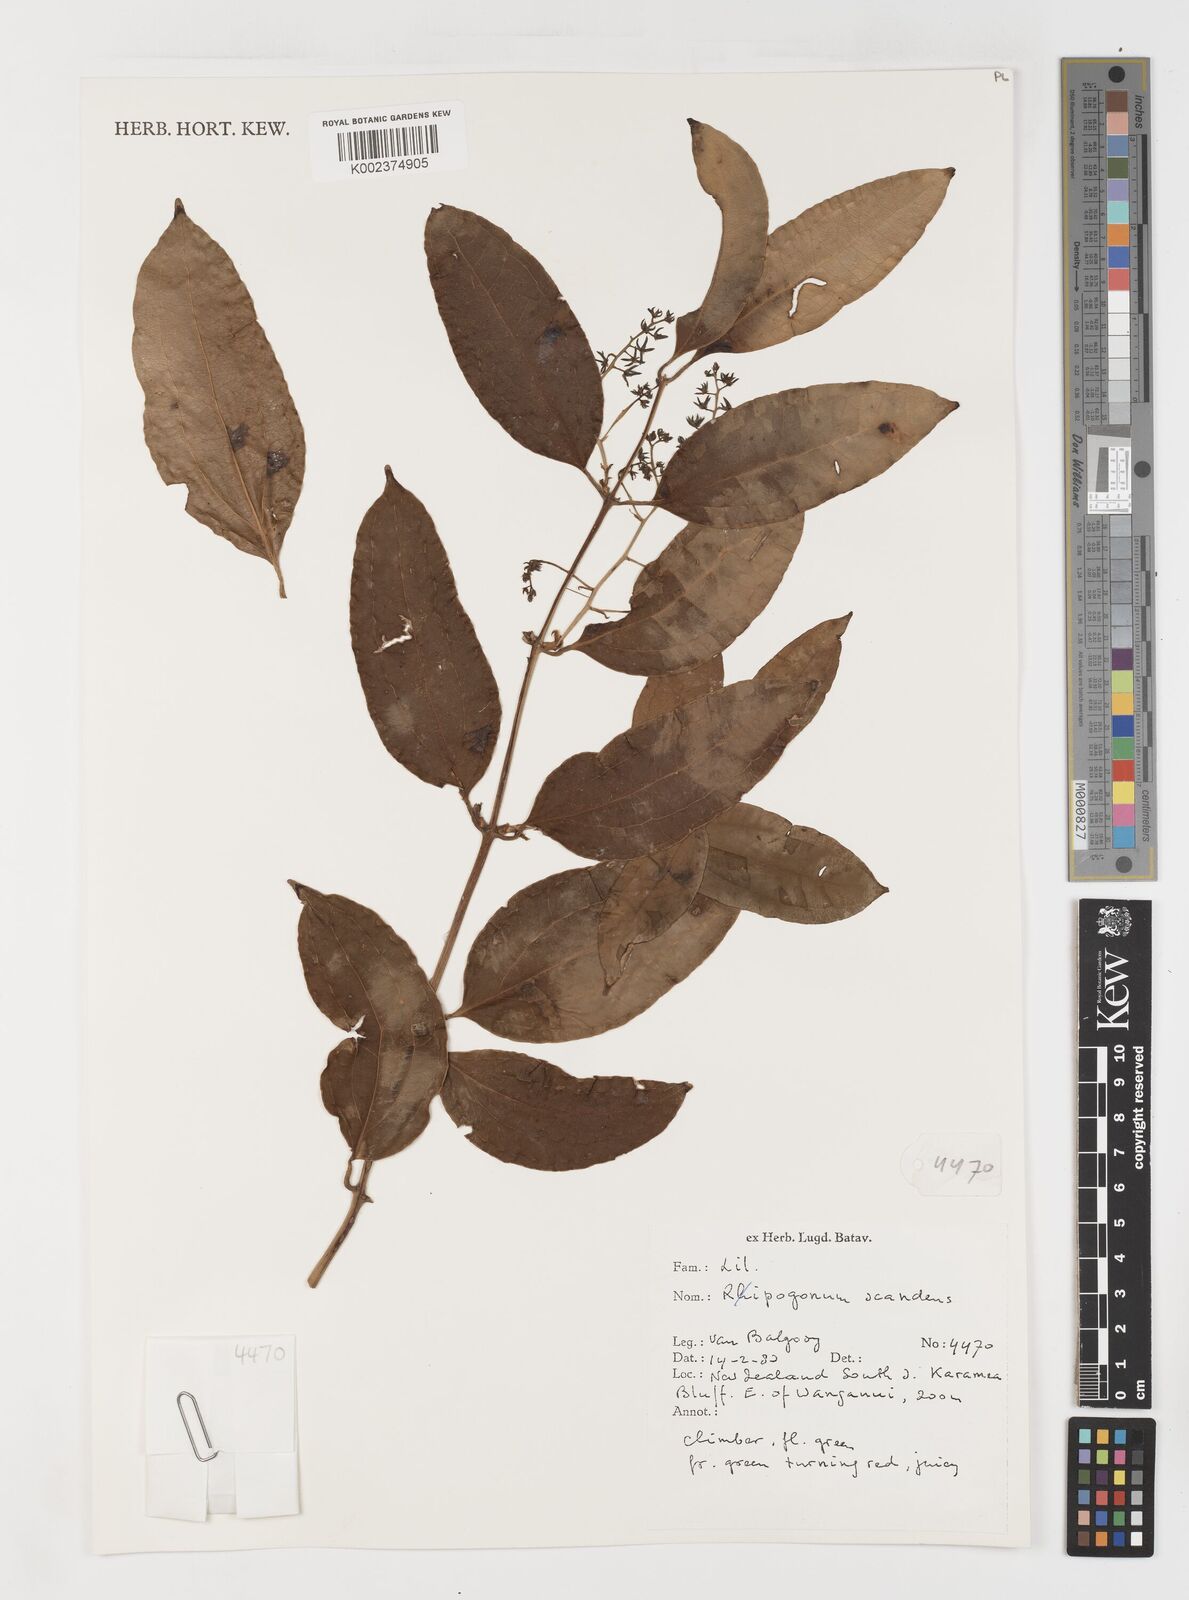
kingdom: Plantae
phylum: Tracheophyta
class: Liliopsida
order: Liliales
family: Ripogonaceae
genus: Ripogonum
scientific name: Ripogonum scandens
